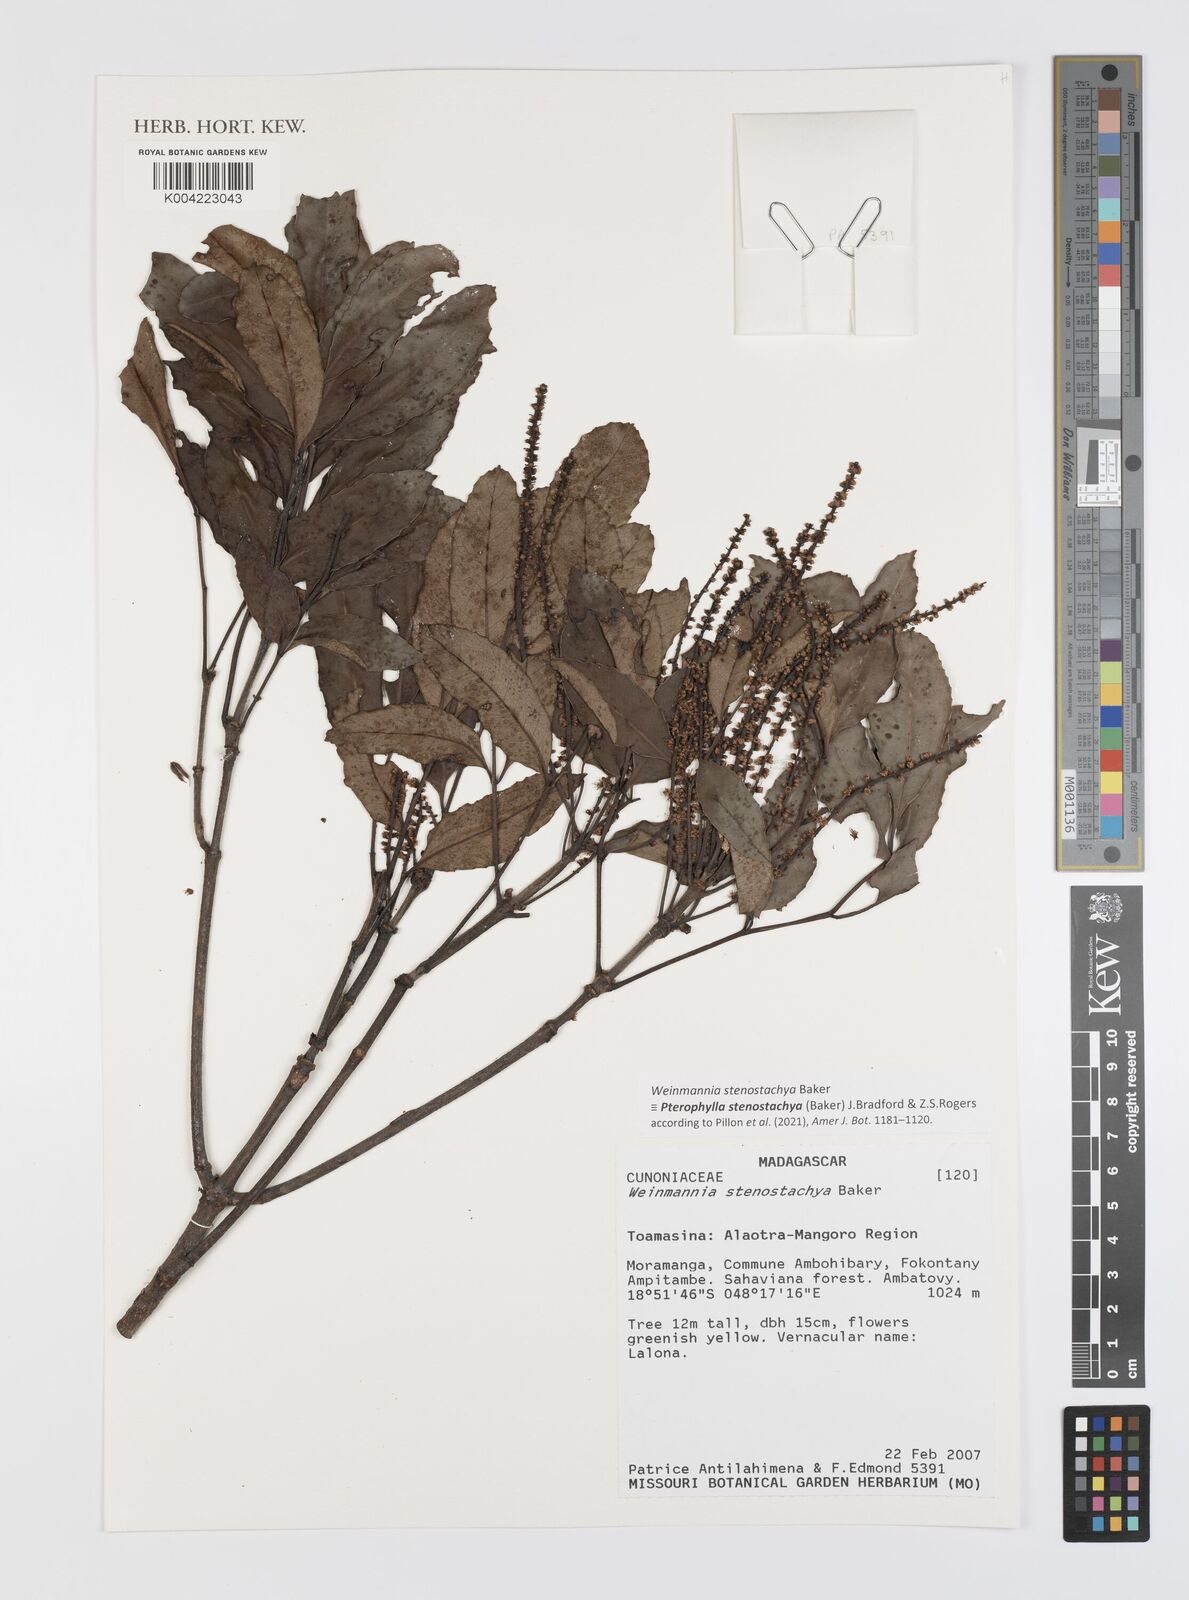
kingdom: Plantae
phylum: Tracheophyta
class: Magnoliopsida
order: Oxalidales
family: Cunoniaceae
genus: Pterophylla
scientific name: Pterophylla stenostachya
